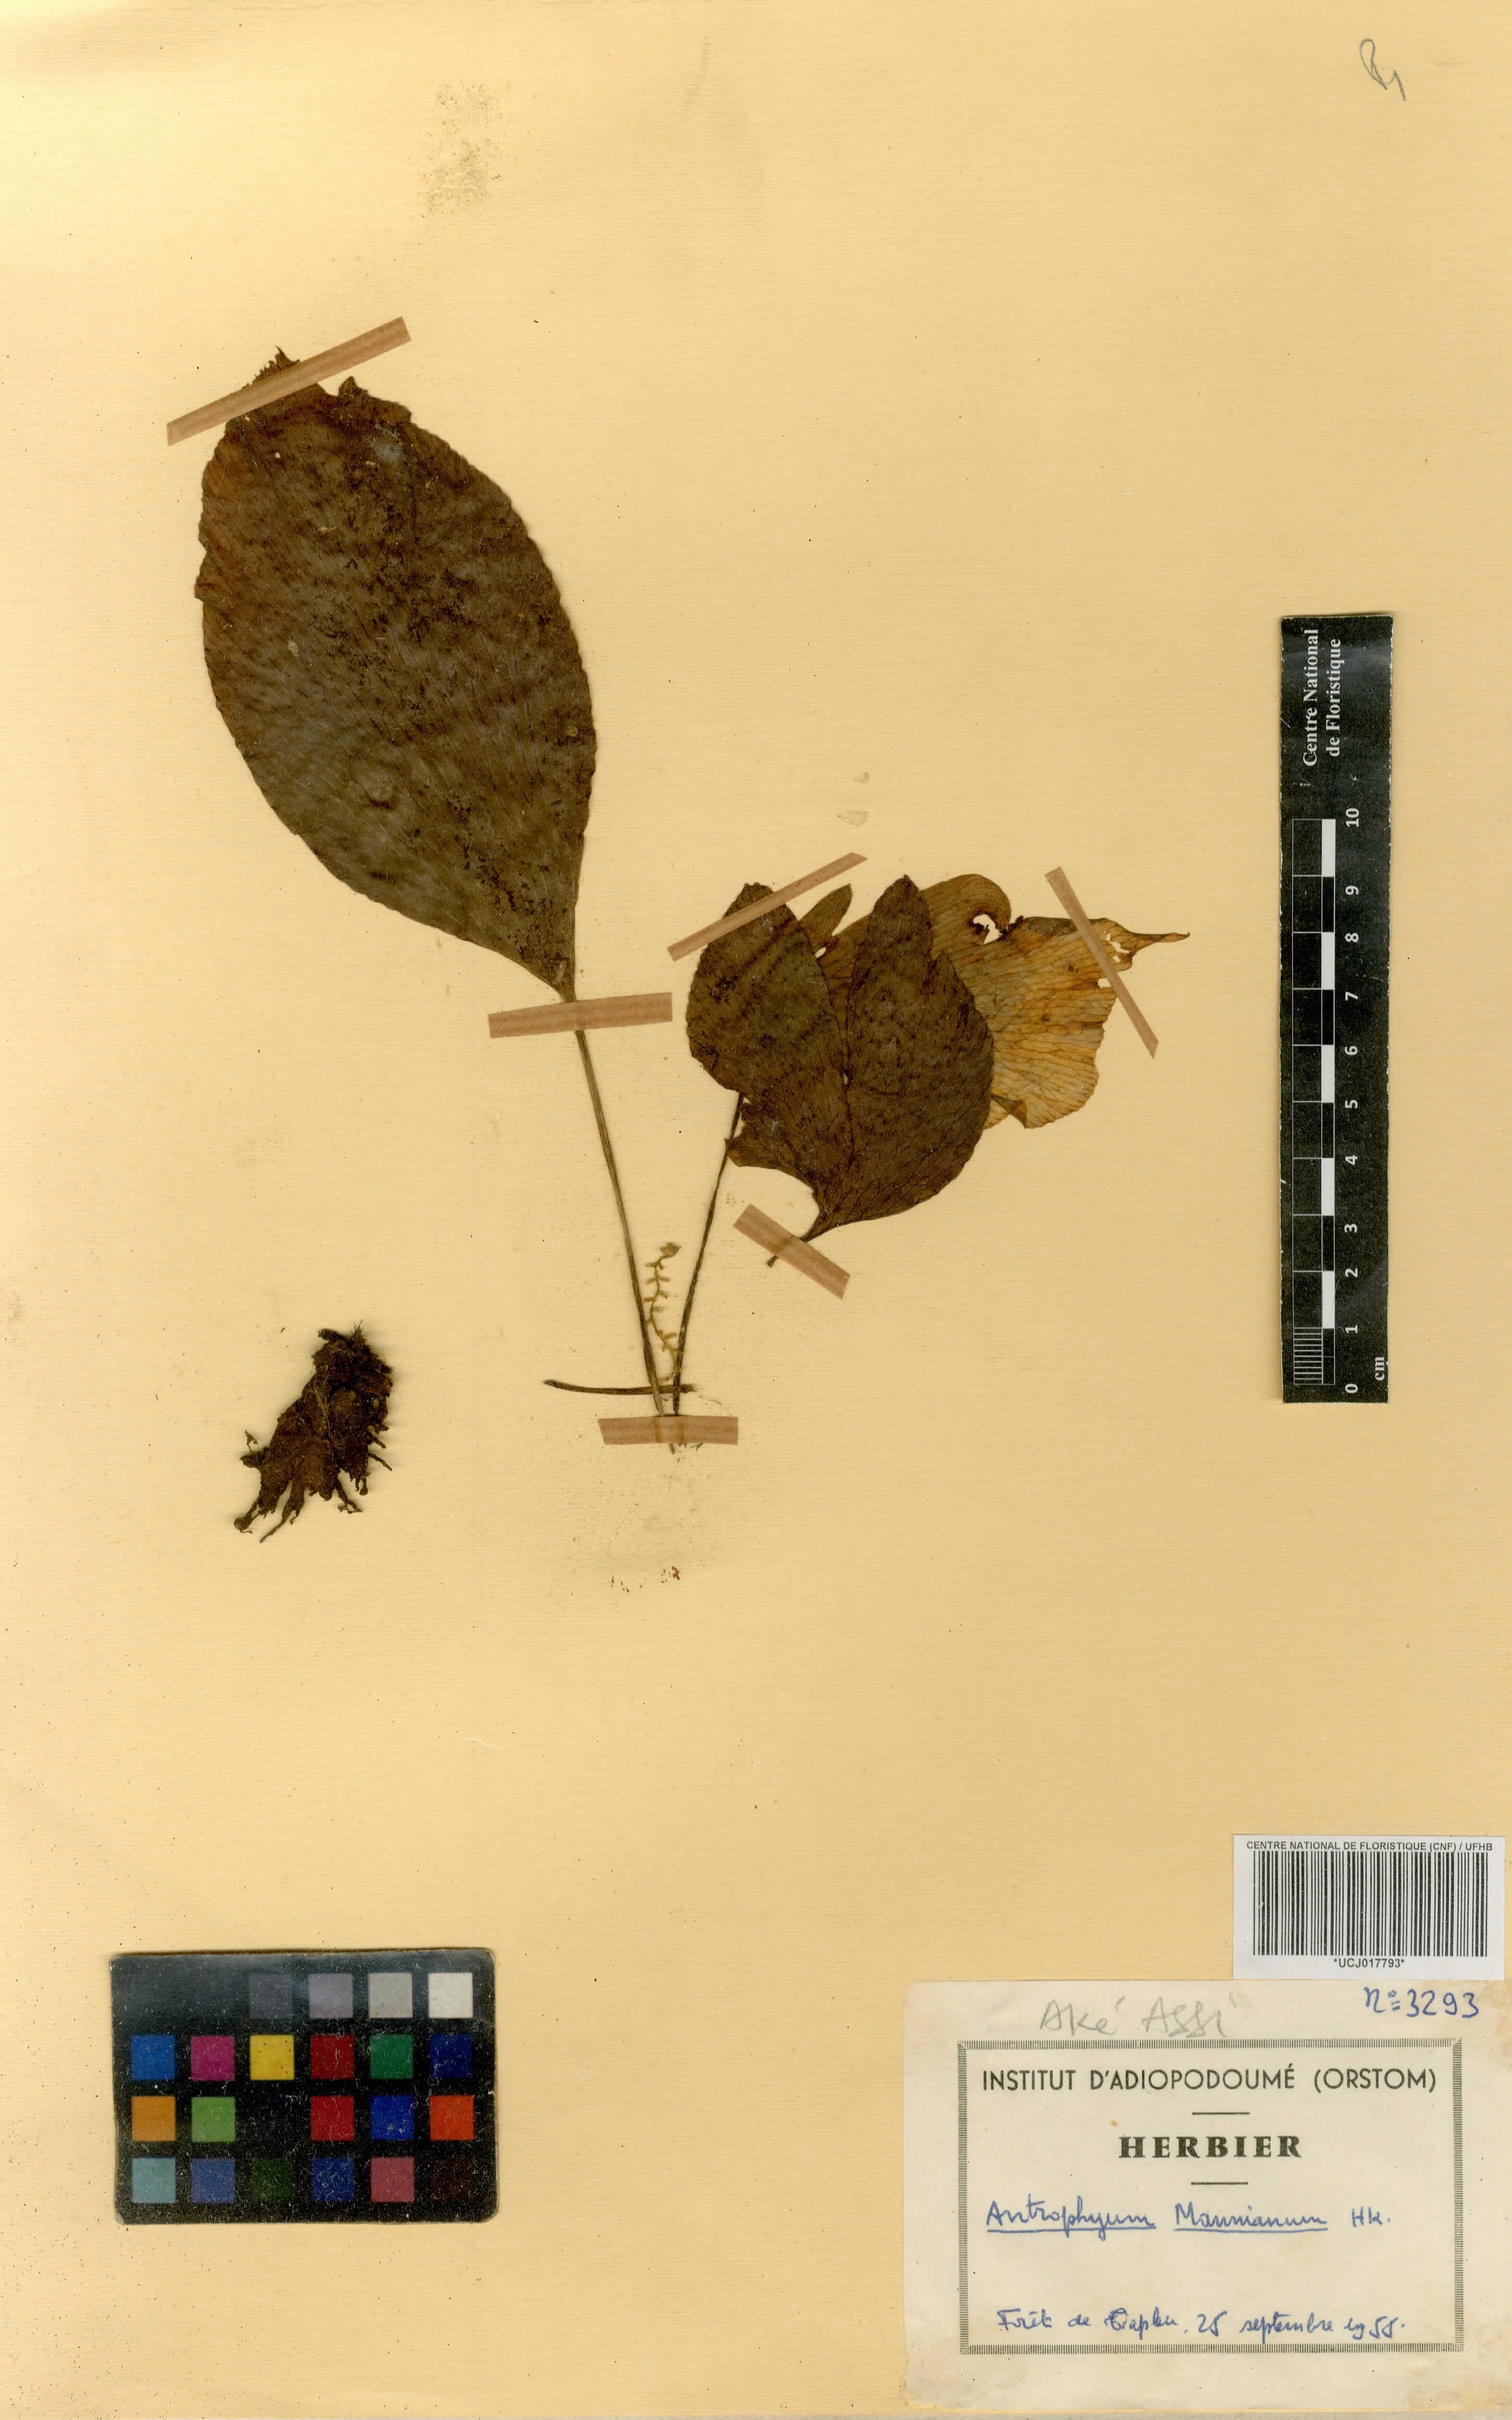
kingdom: Plantae
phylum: Tracheophyta
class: Polypodiopsida
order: Polypodiales
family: Pteridaceae
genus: Antrophyopsis
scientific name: Antrophyopsis manniana
